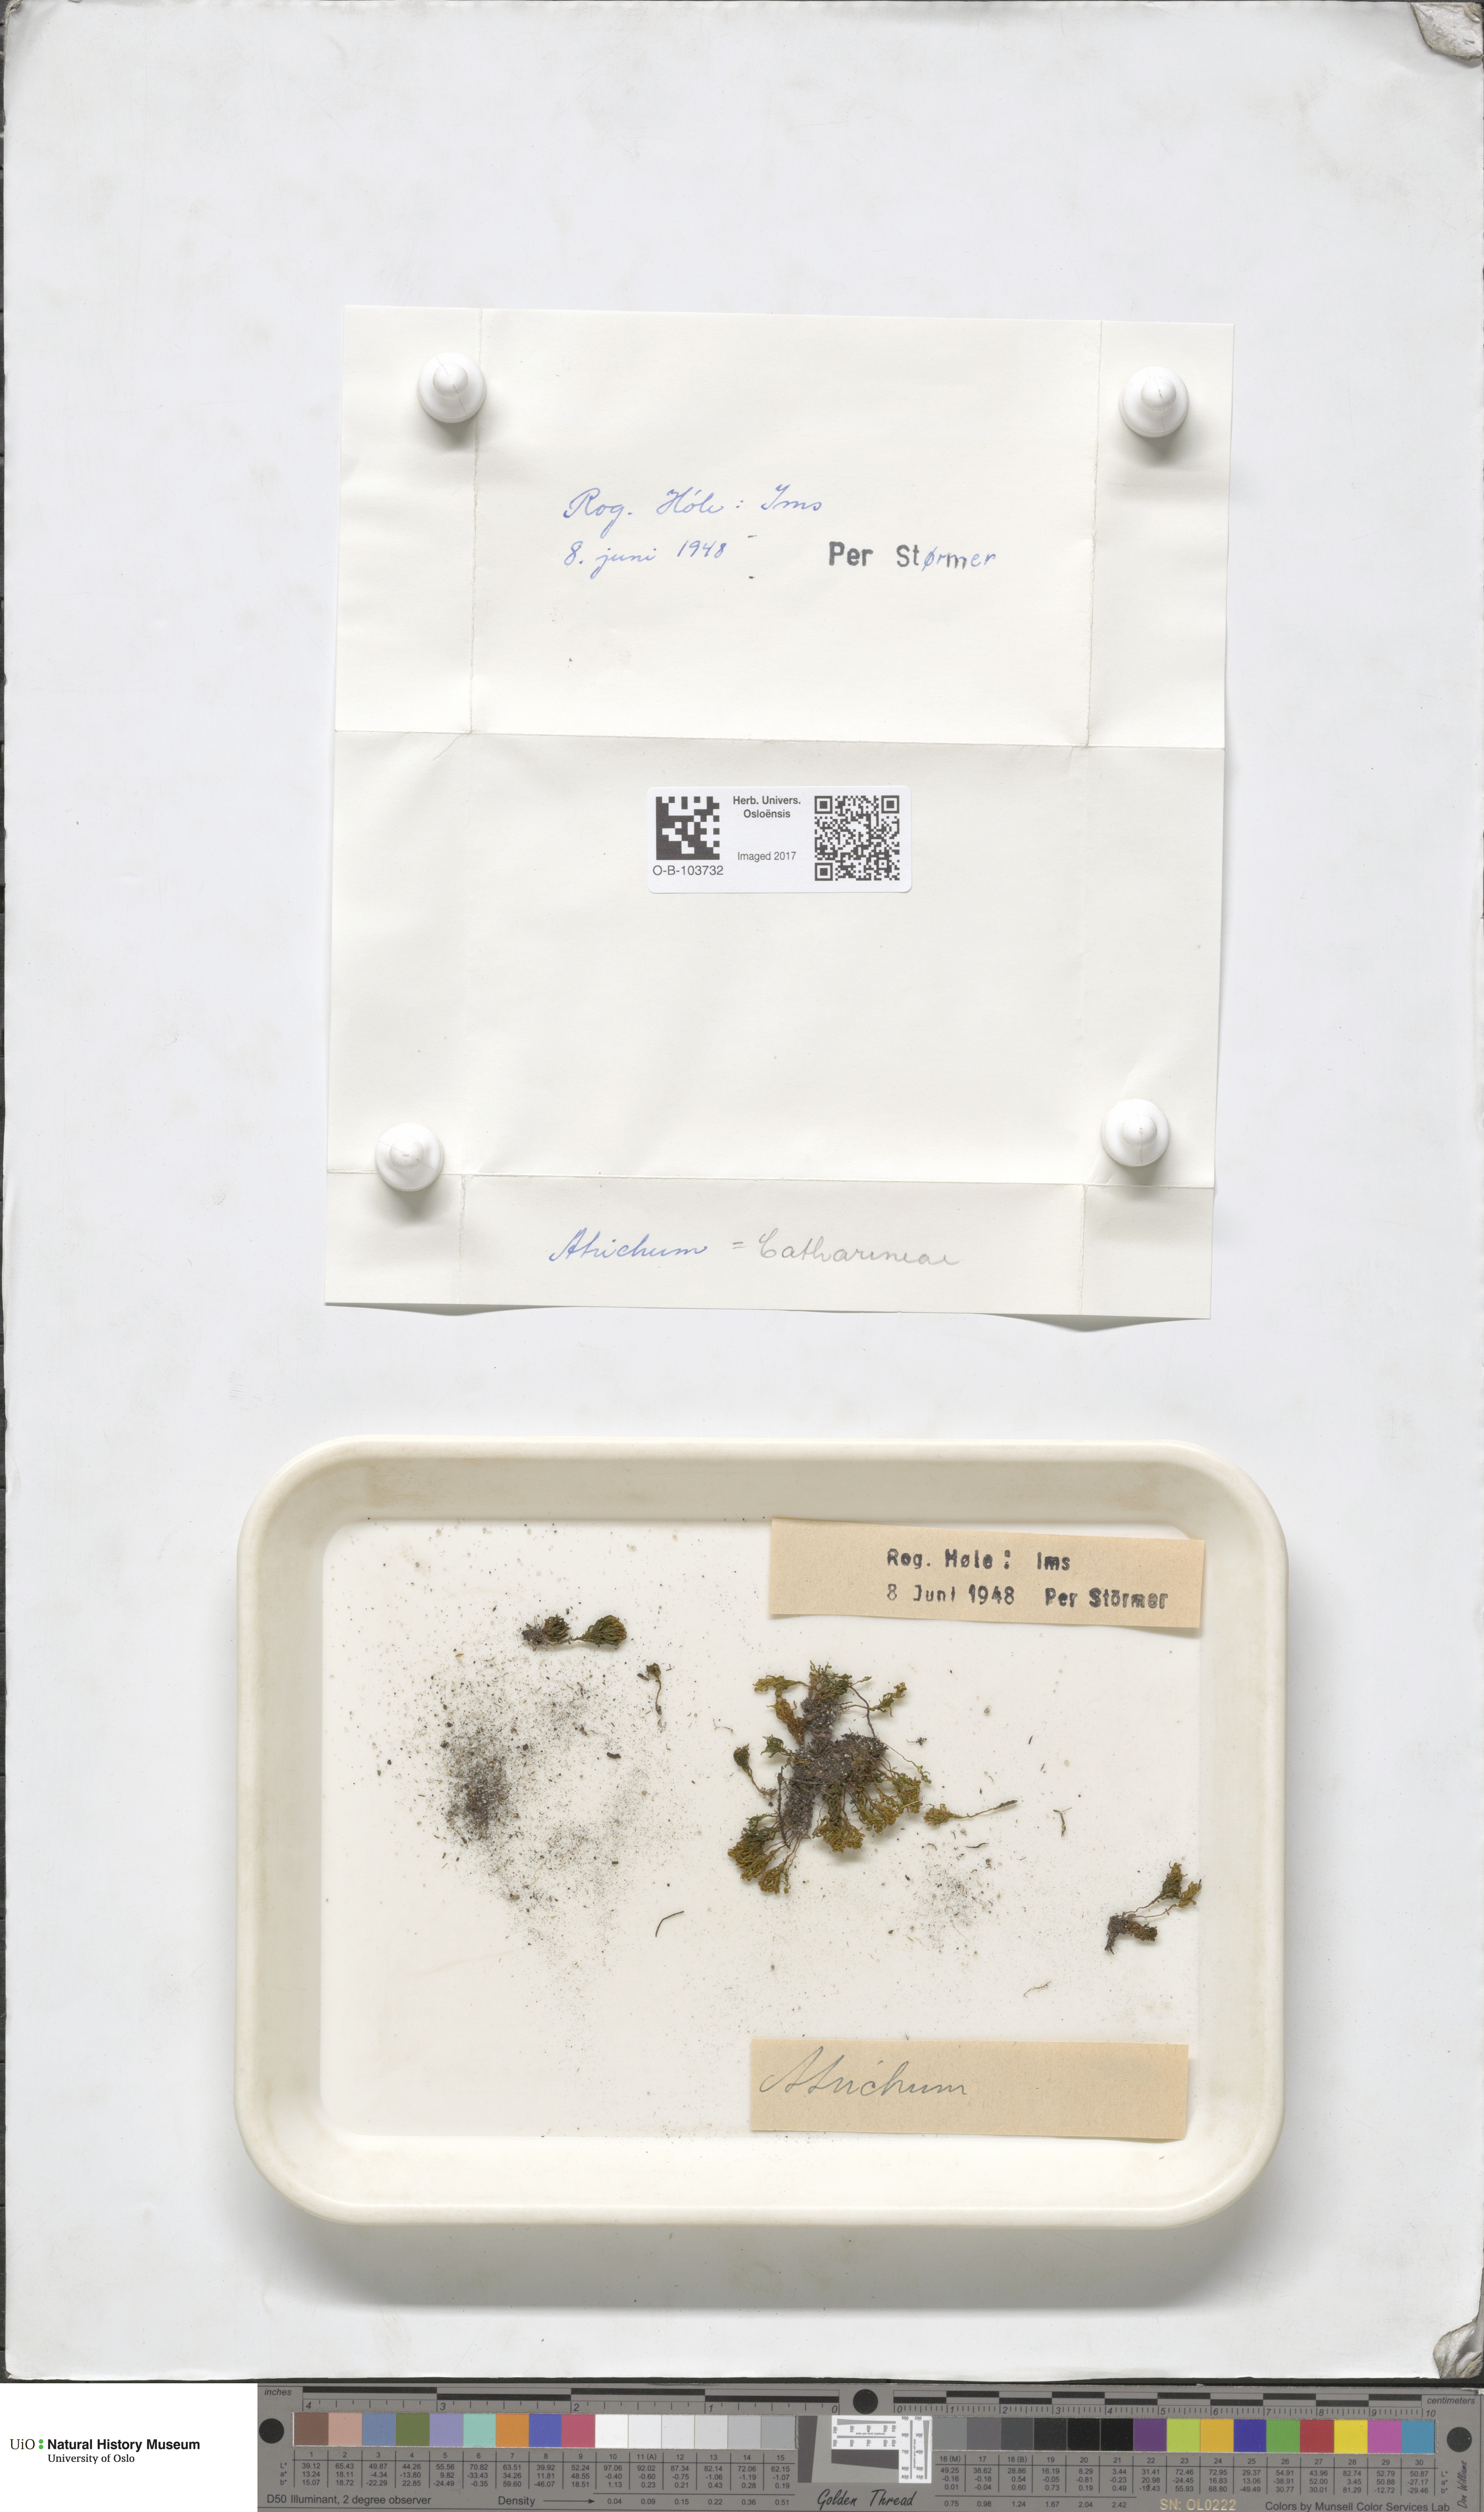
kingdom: Plantae
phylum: Bryophyta
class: Polytrichopsida
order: Polytrichales
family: Polytrichaceae
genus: Atrichum
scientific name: Atrichum
